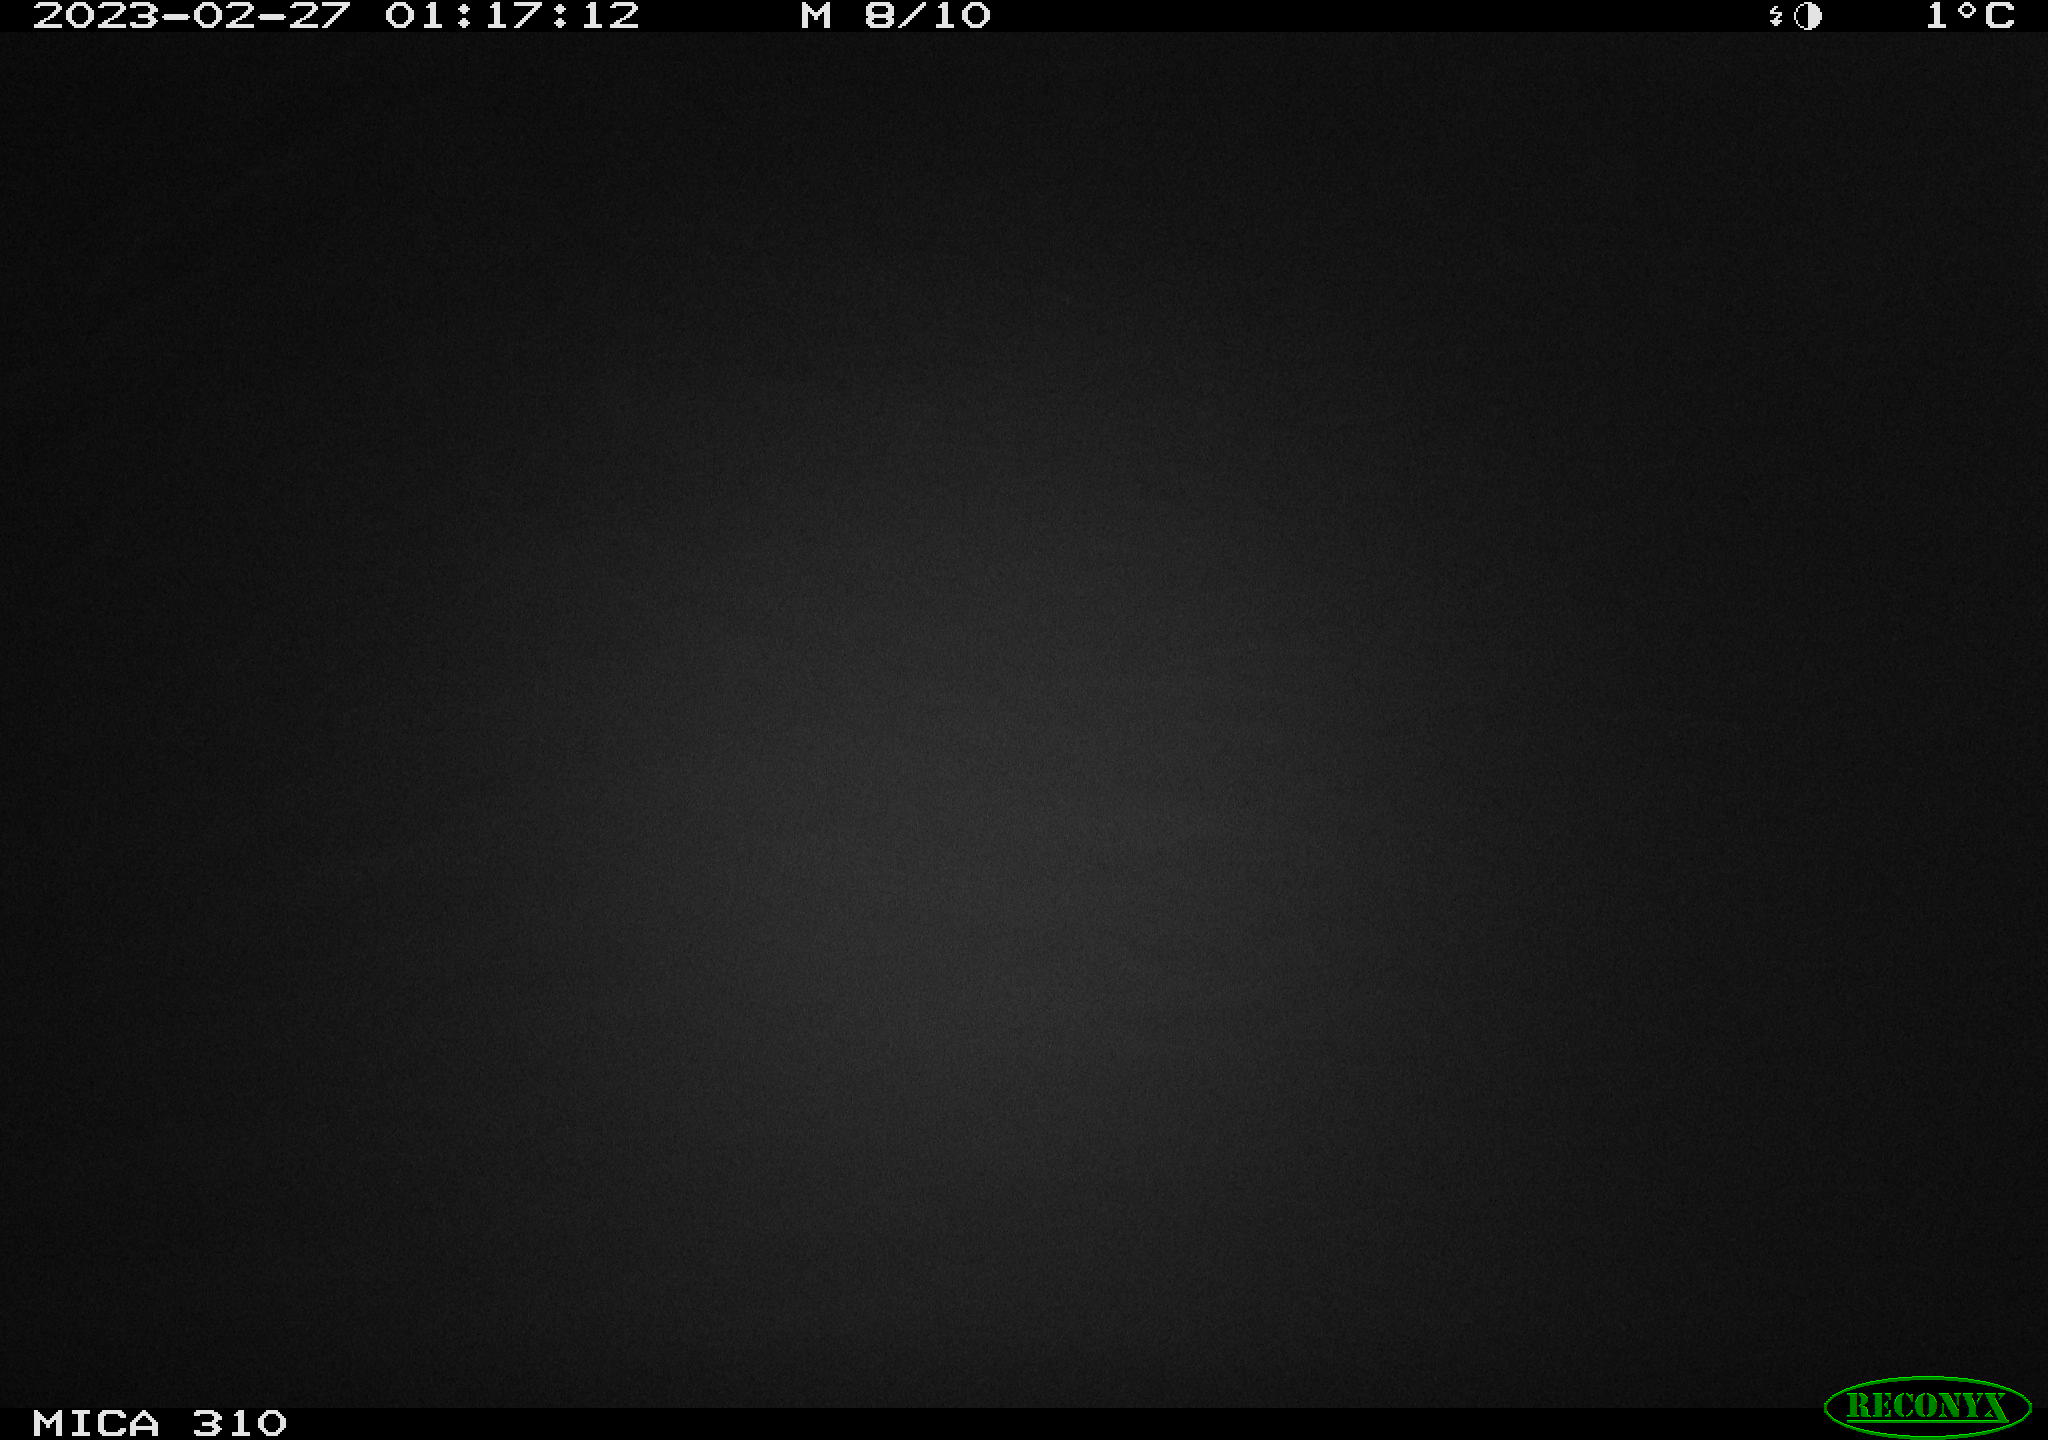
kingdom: Animalia
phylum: Chordata
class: Mammalia
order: Rodentia
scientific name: Rodentia
